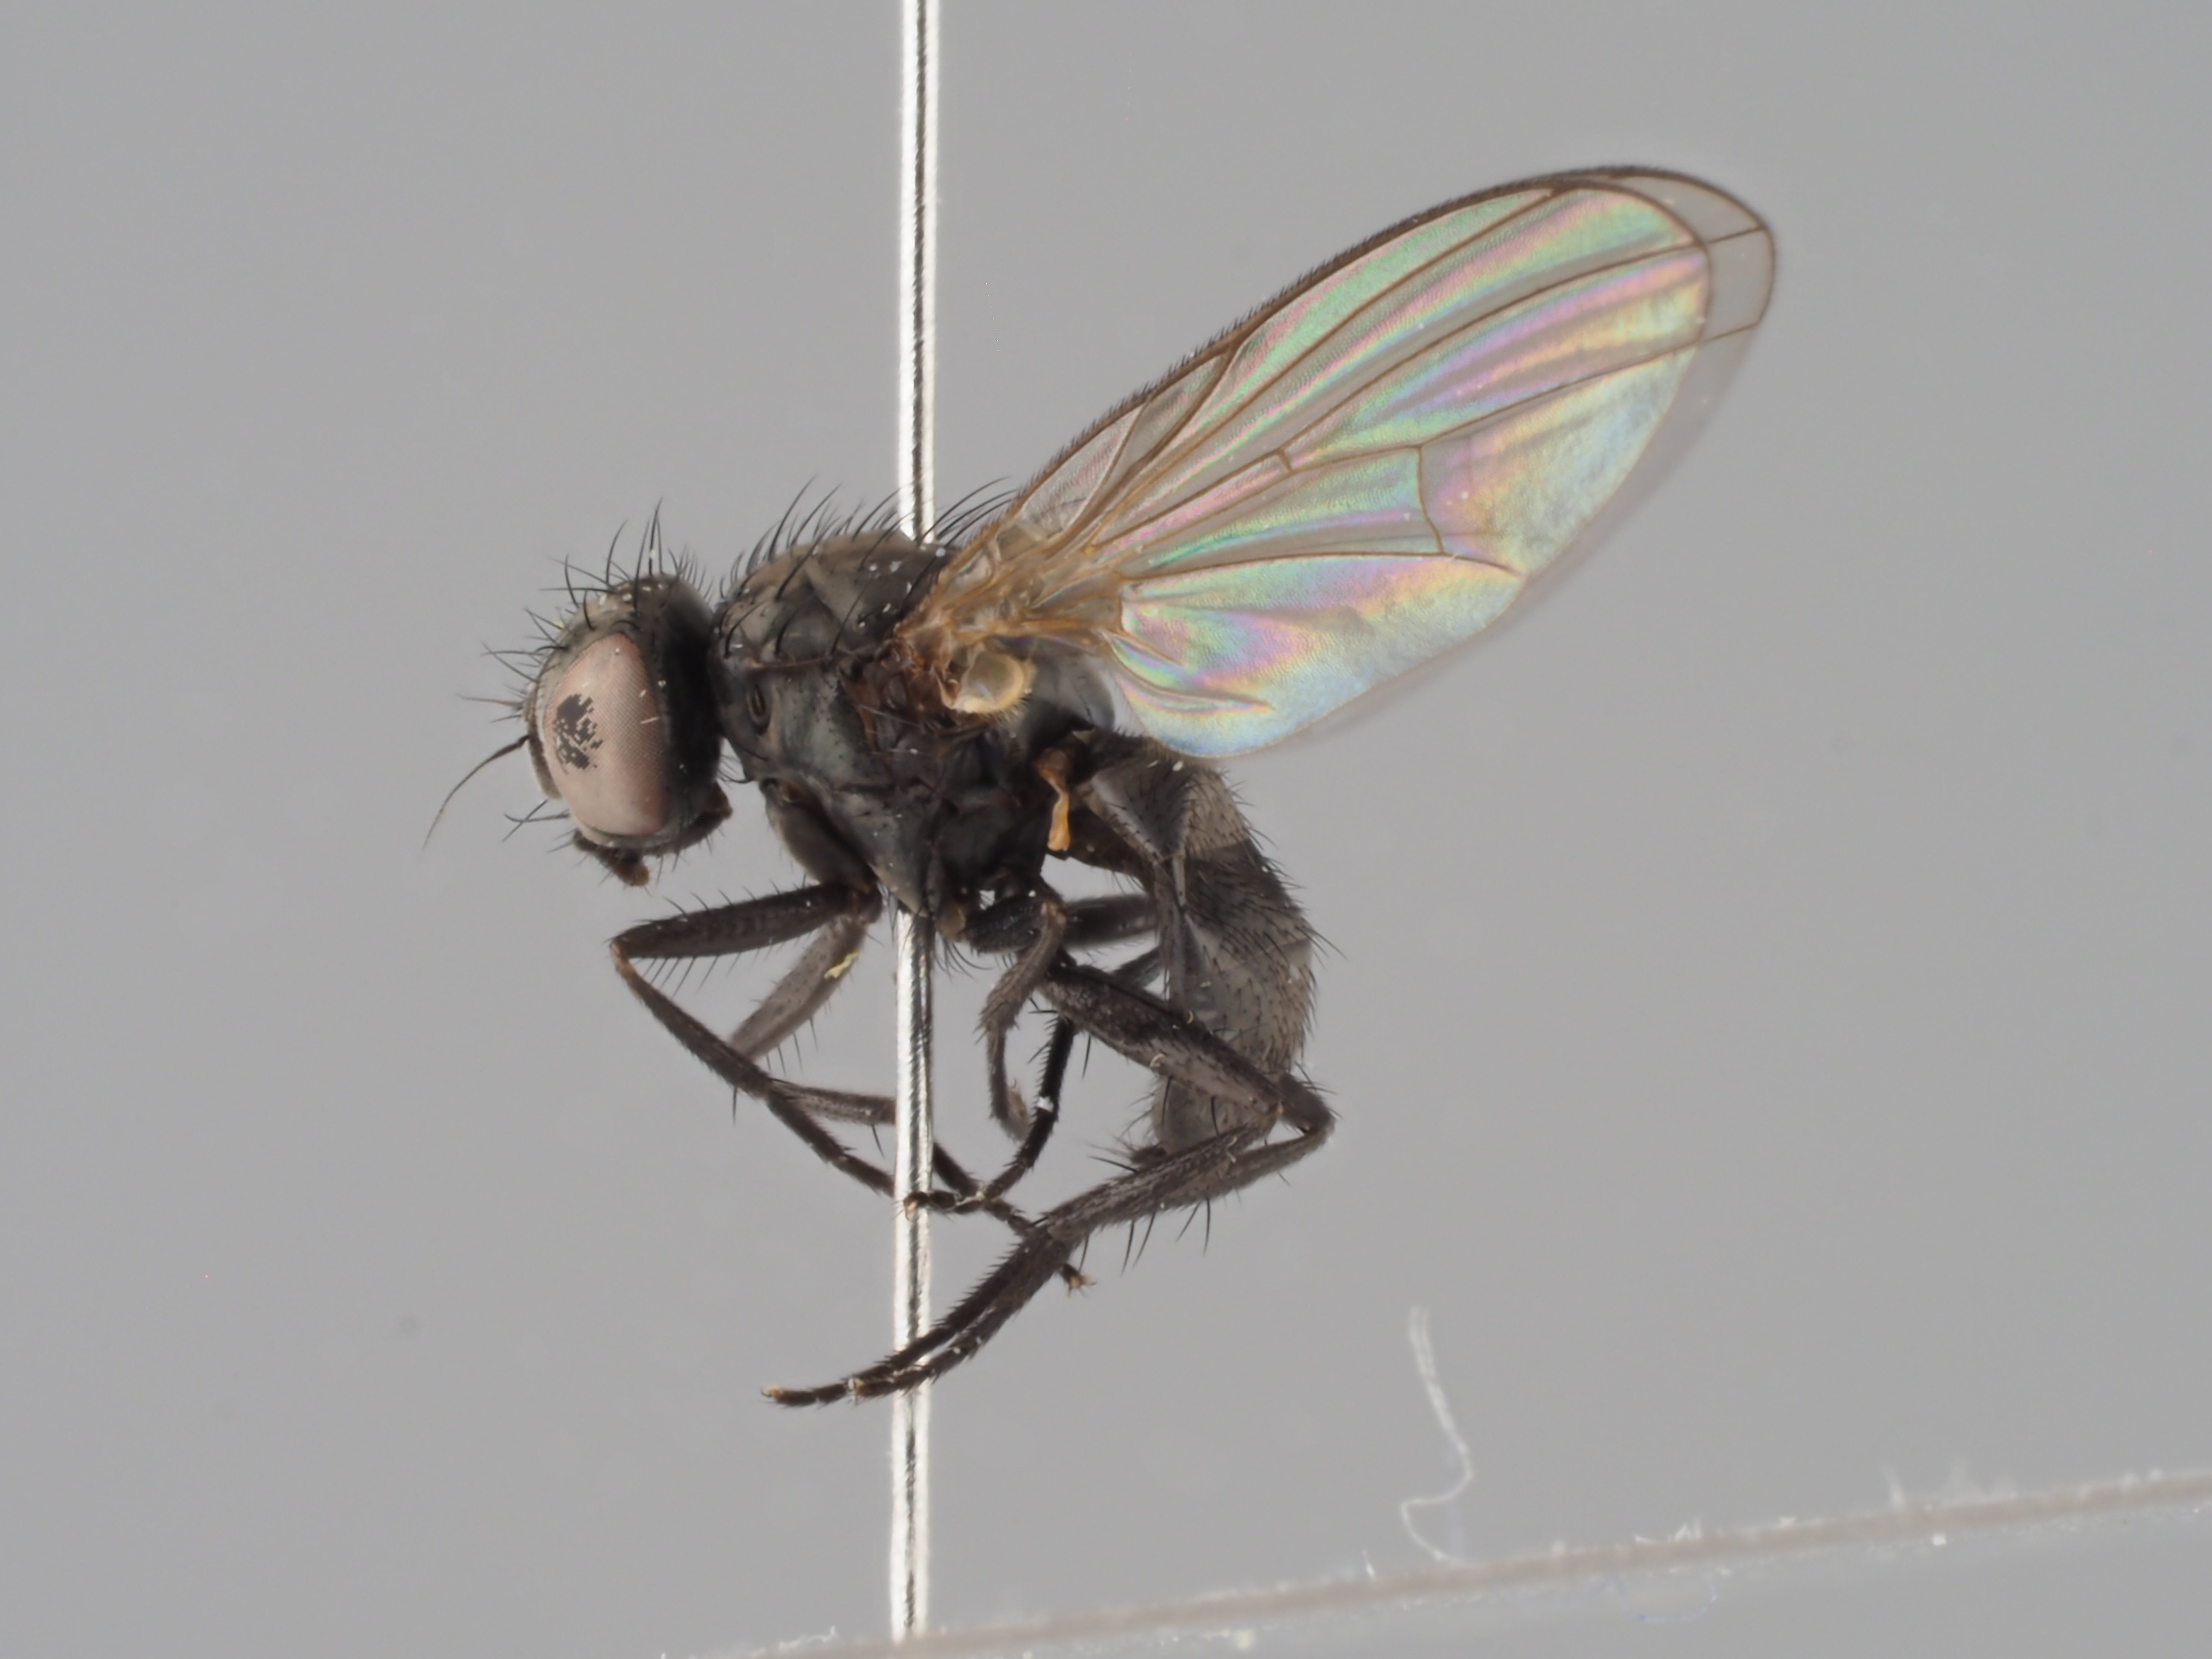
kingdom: Animalia
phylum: Arthropoda
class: Insecta
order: Diptera
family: Fanniidae
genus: Fannia
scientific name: Fannia tuberculata
